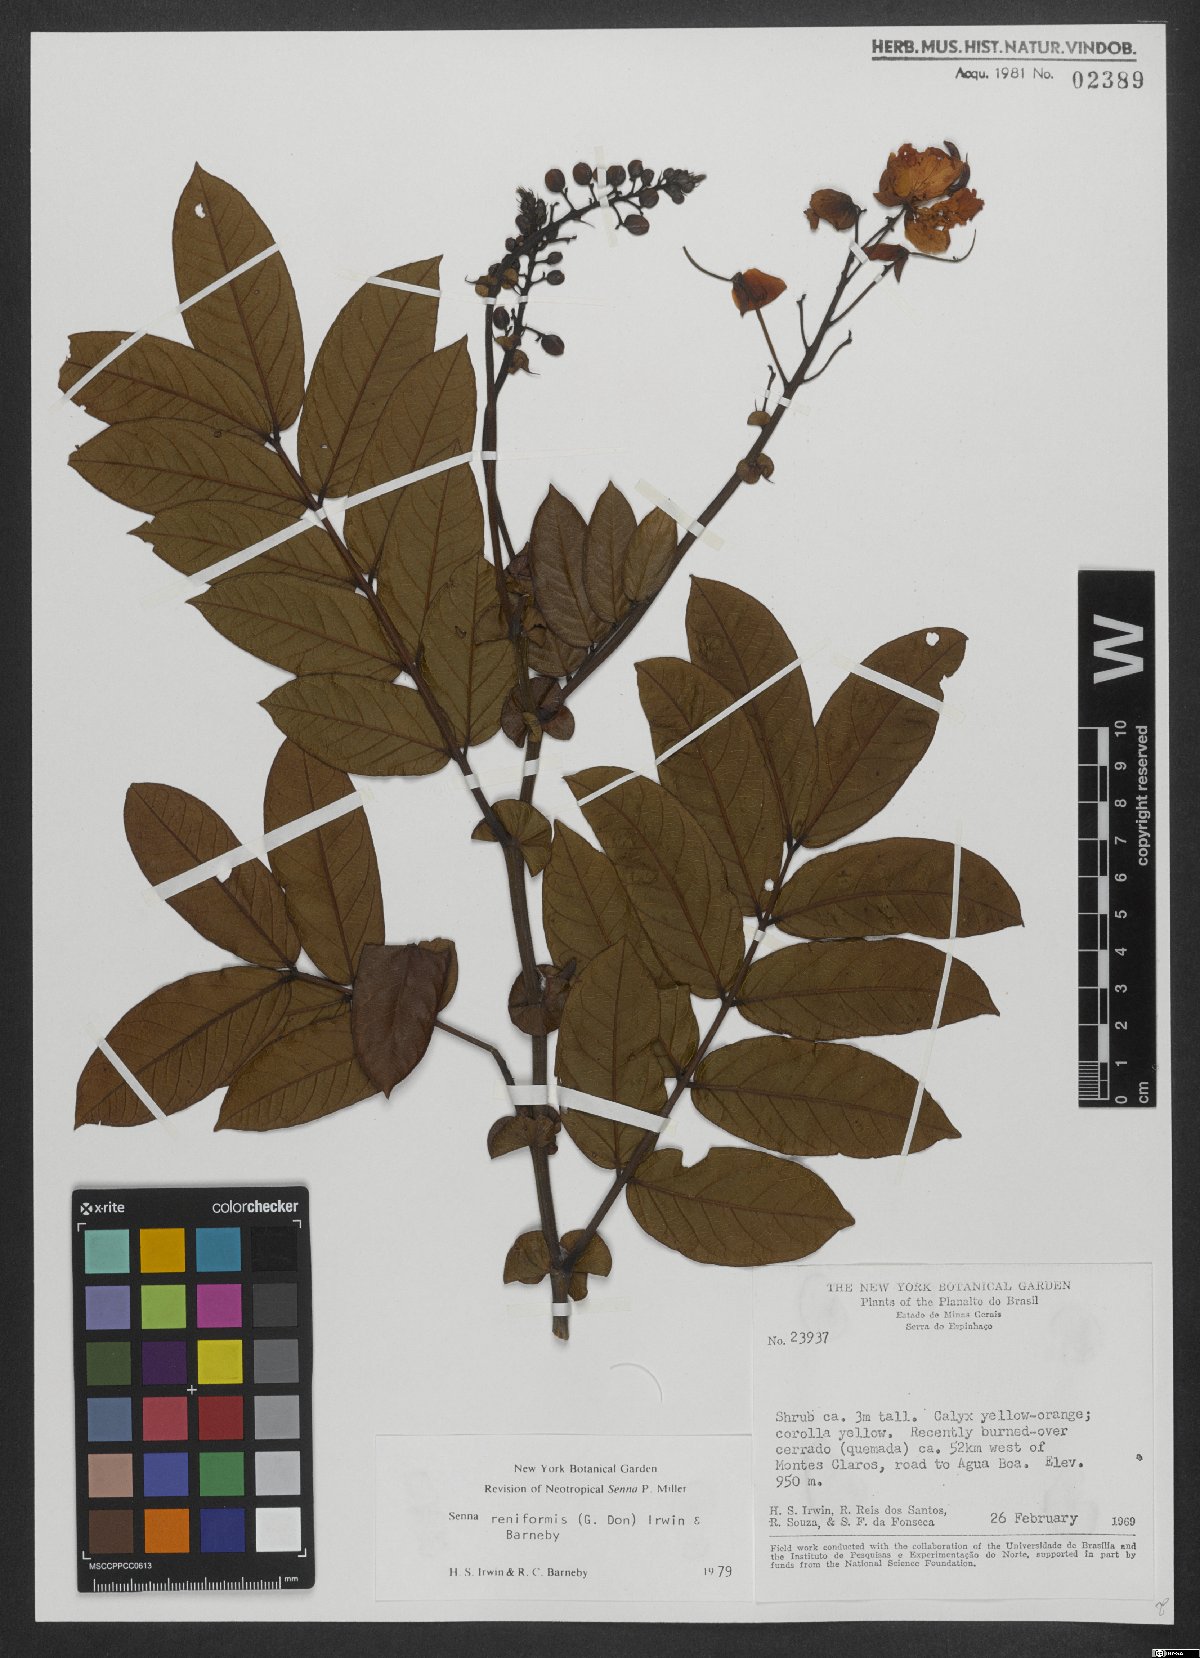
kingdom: Plantae
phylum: Tracheophyta
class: Magnoliopsida
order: Fabales
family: Fabaceae
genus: Senna
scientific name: Senna reniformis
